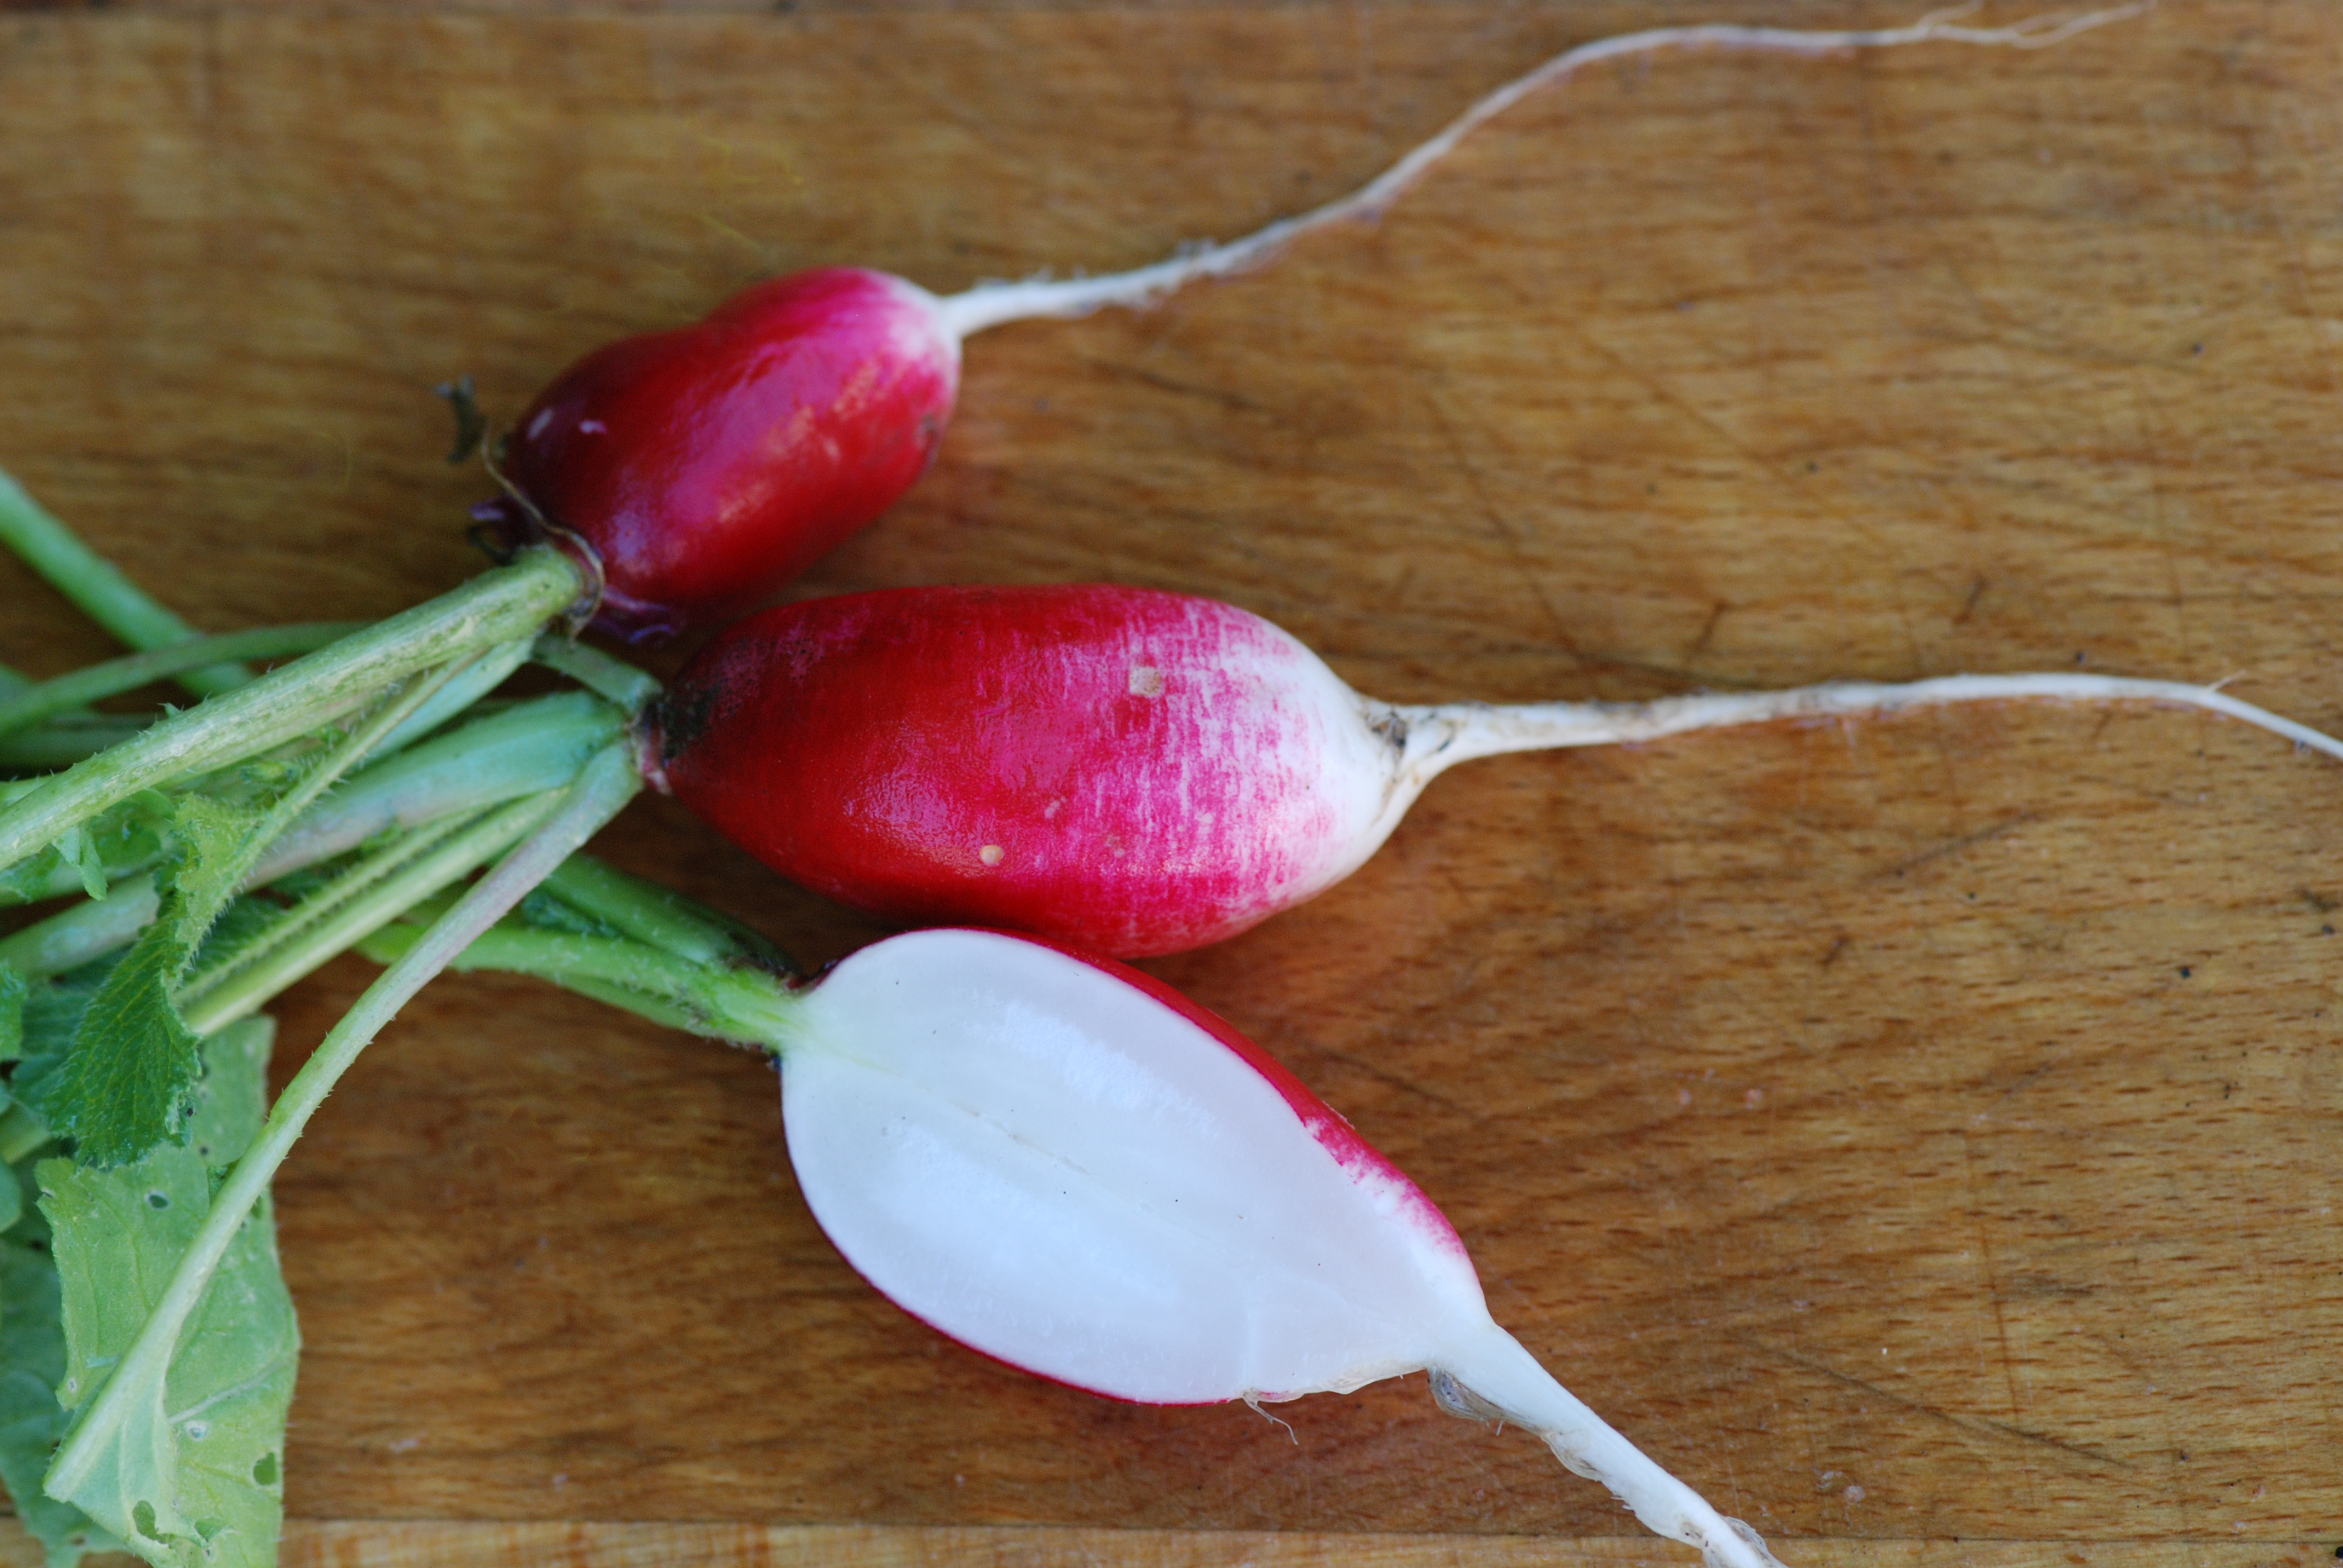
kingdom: Plantae
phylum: Tracheophyta
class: Magnoliopsida
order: Brassicales
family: Brassicaceae
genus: Raphanus
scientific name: Raphanus sativus
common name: Cultivated radish
